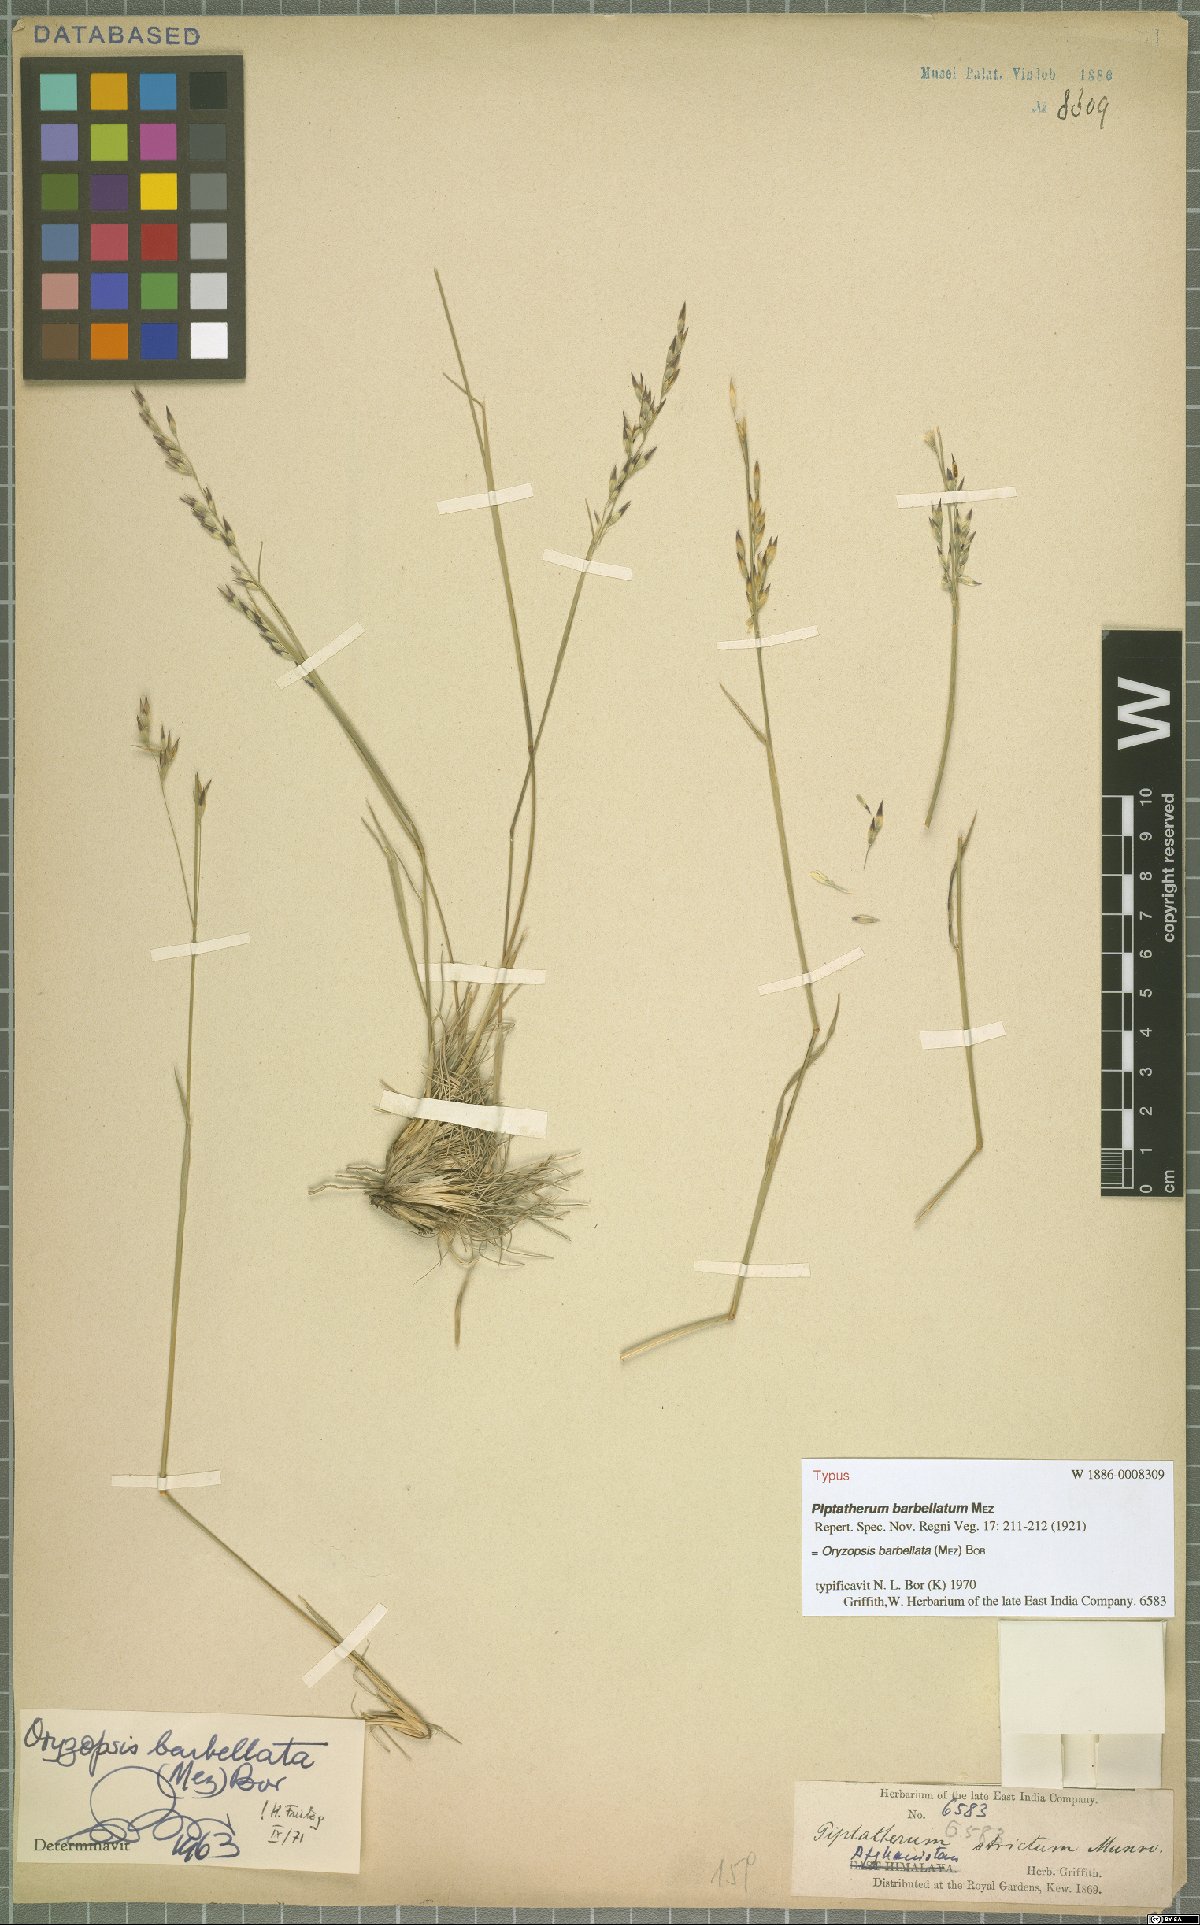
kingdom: Plantae
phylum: Tracheophyta
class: Liliopsida
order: Poales
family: Poaceae
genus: Piptatherum
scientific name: Piptatherum barbellatum
